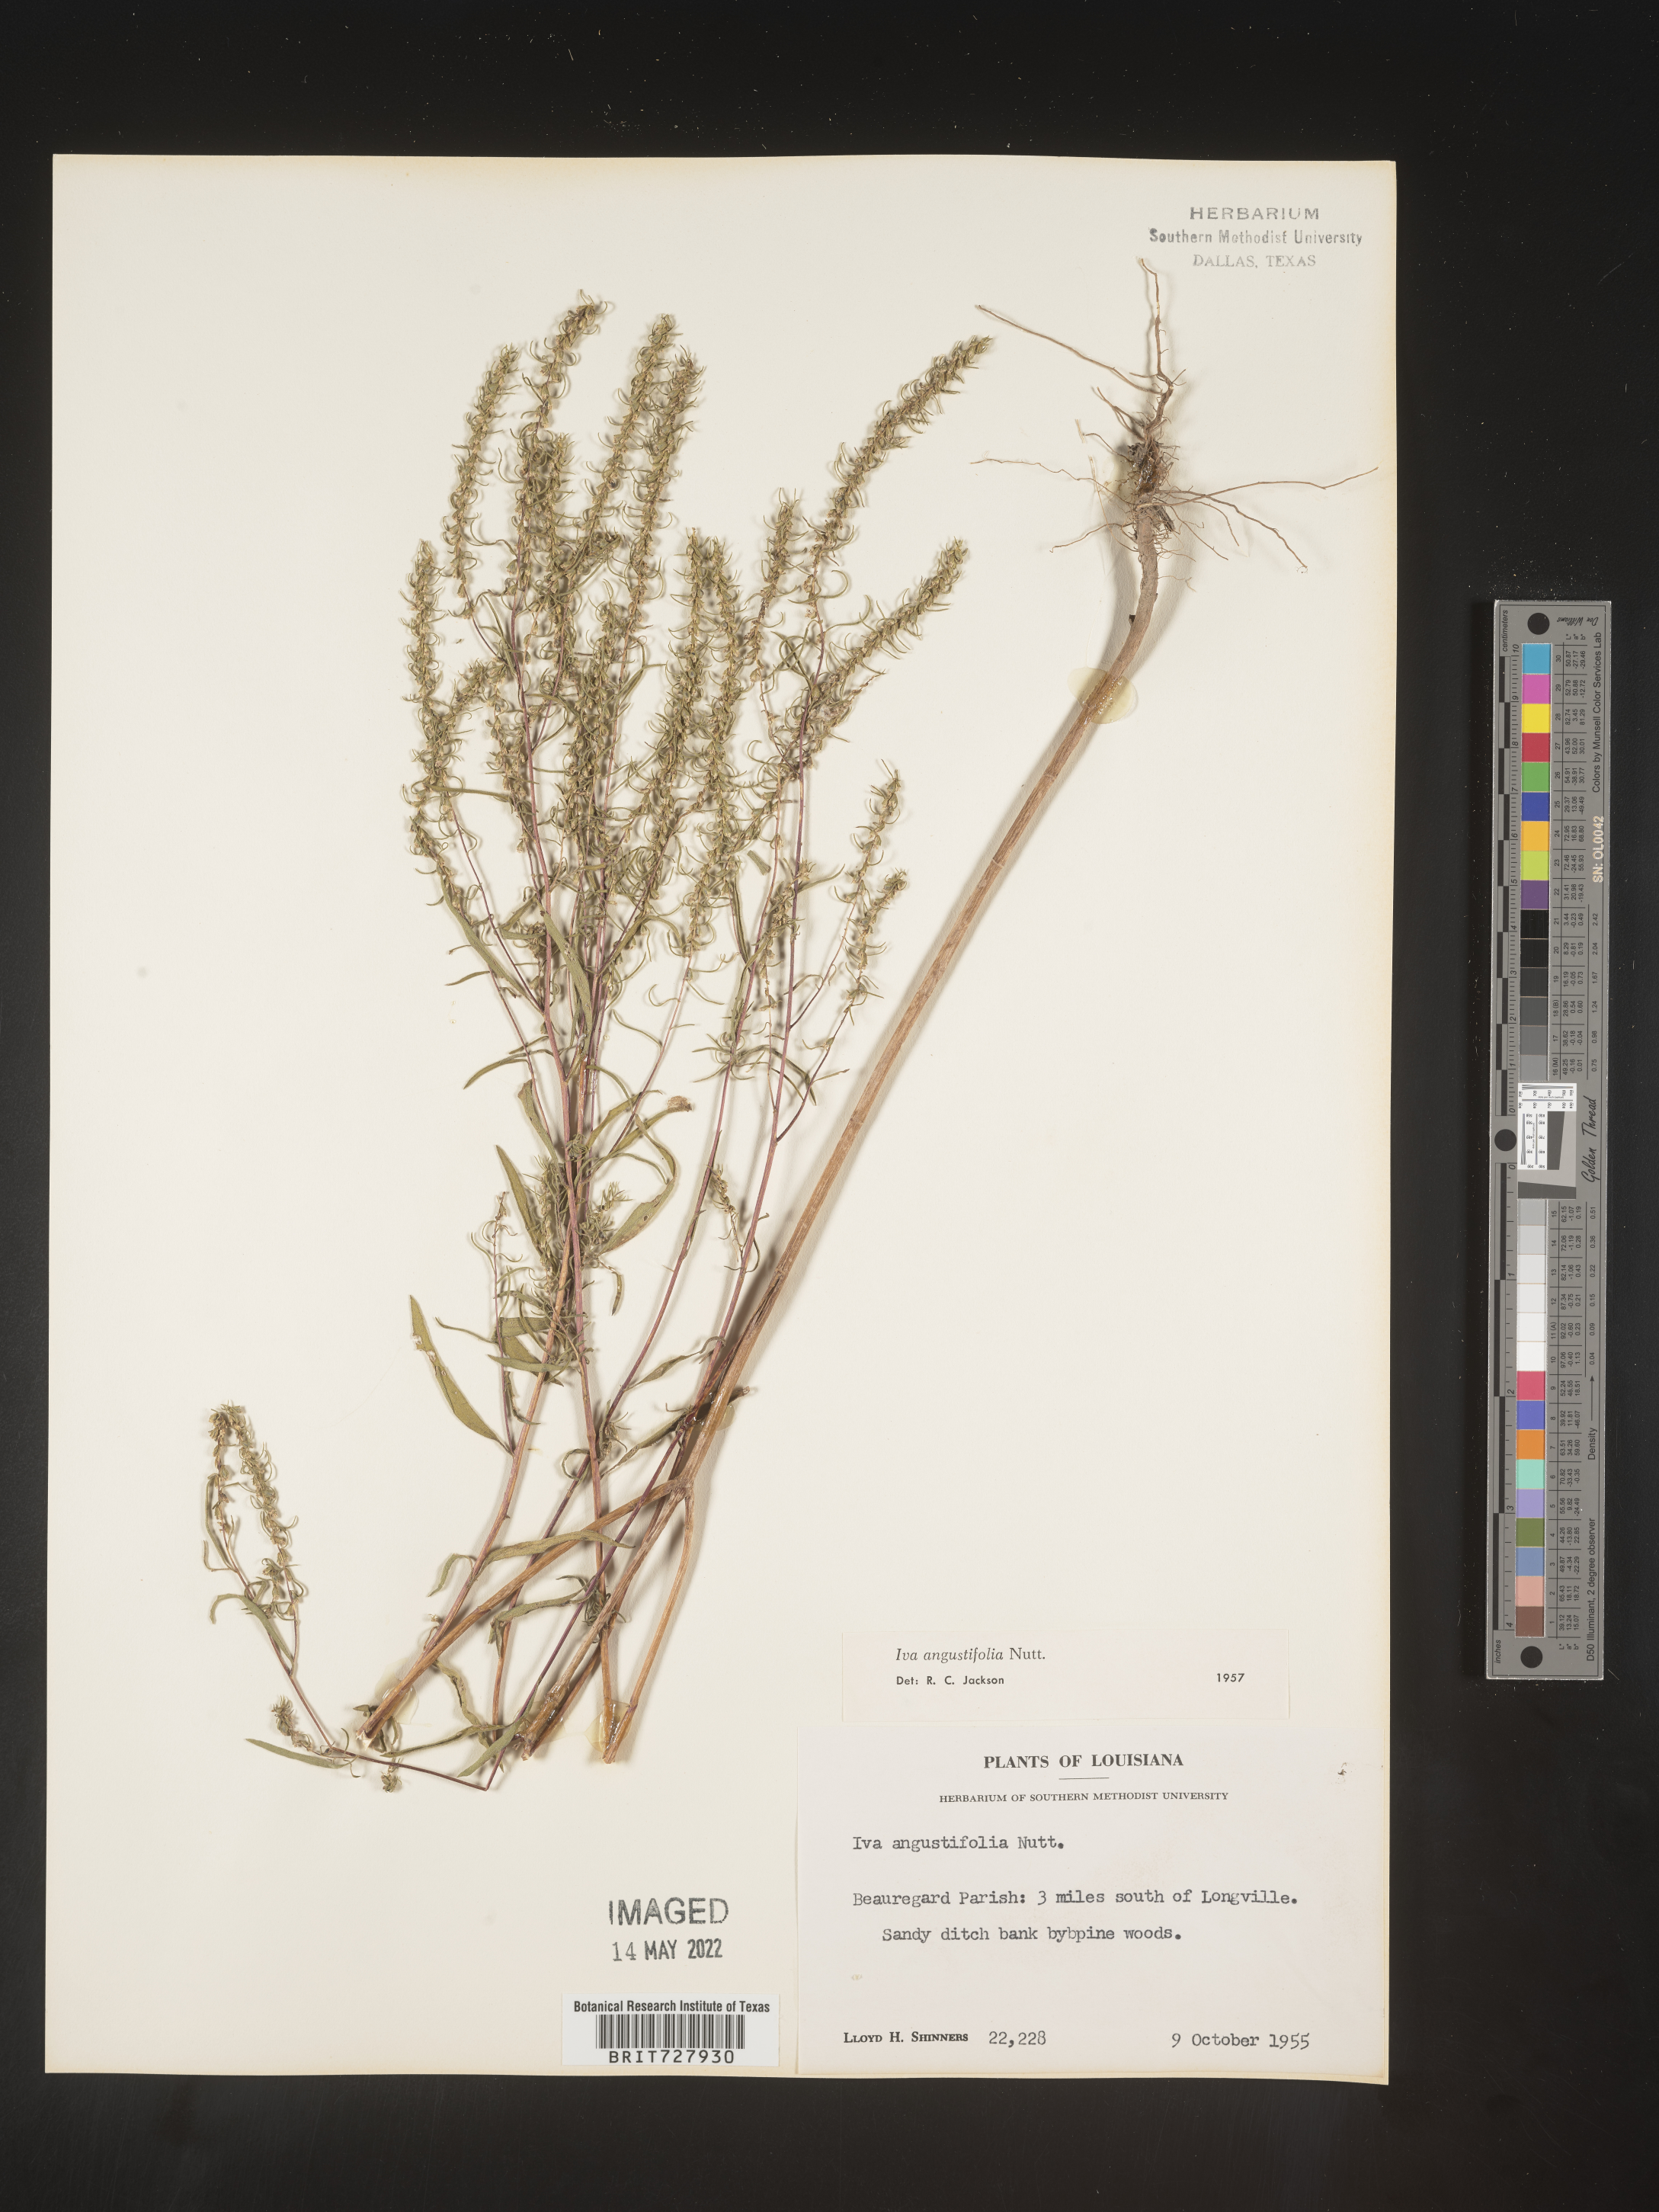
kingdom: Plantae
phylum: Tracheophyta
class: Magnoliopsida
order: Asterales
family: Asteraceae
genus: Iva
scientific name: Iva asperifolia
